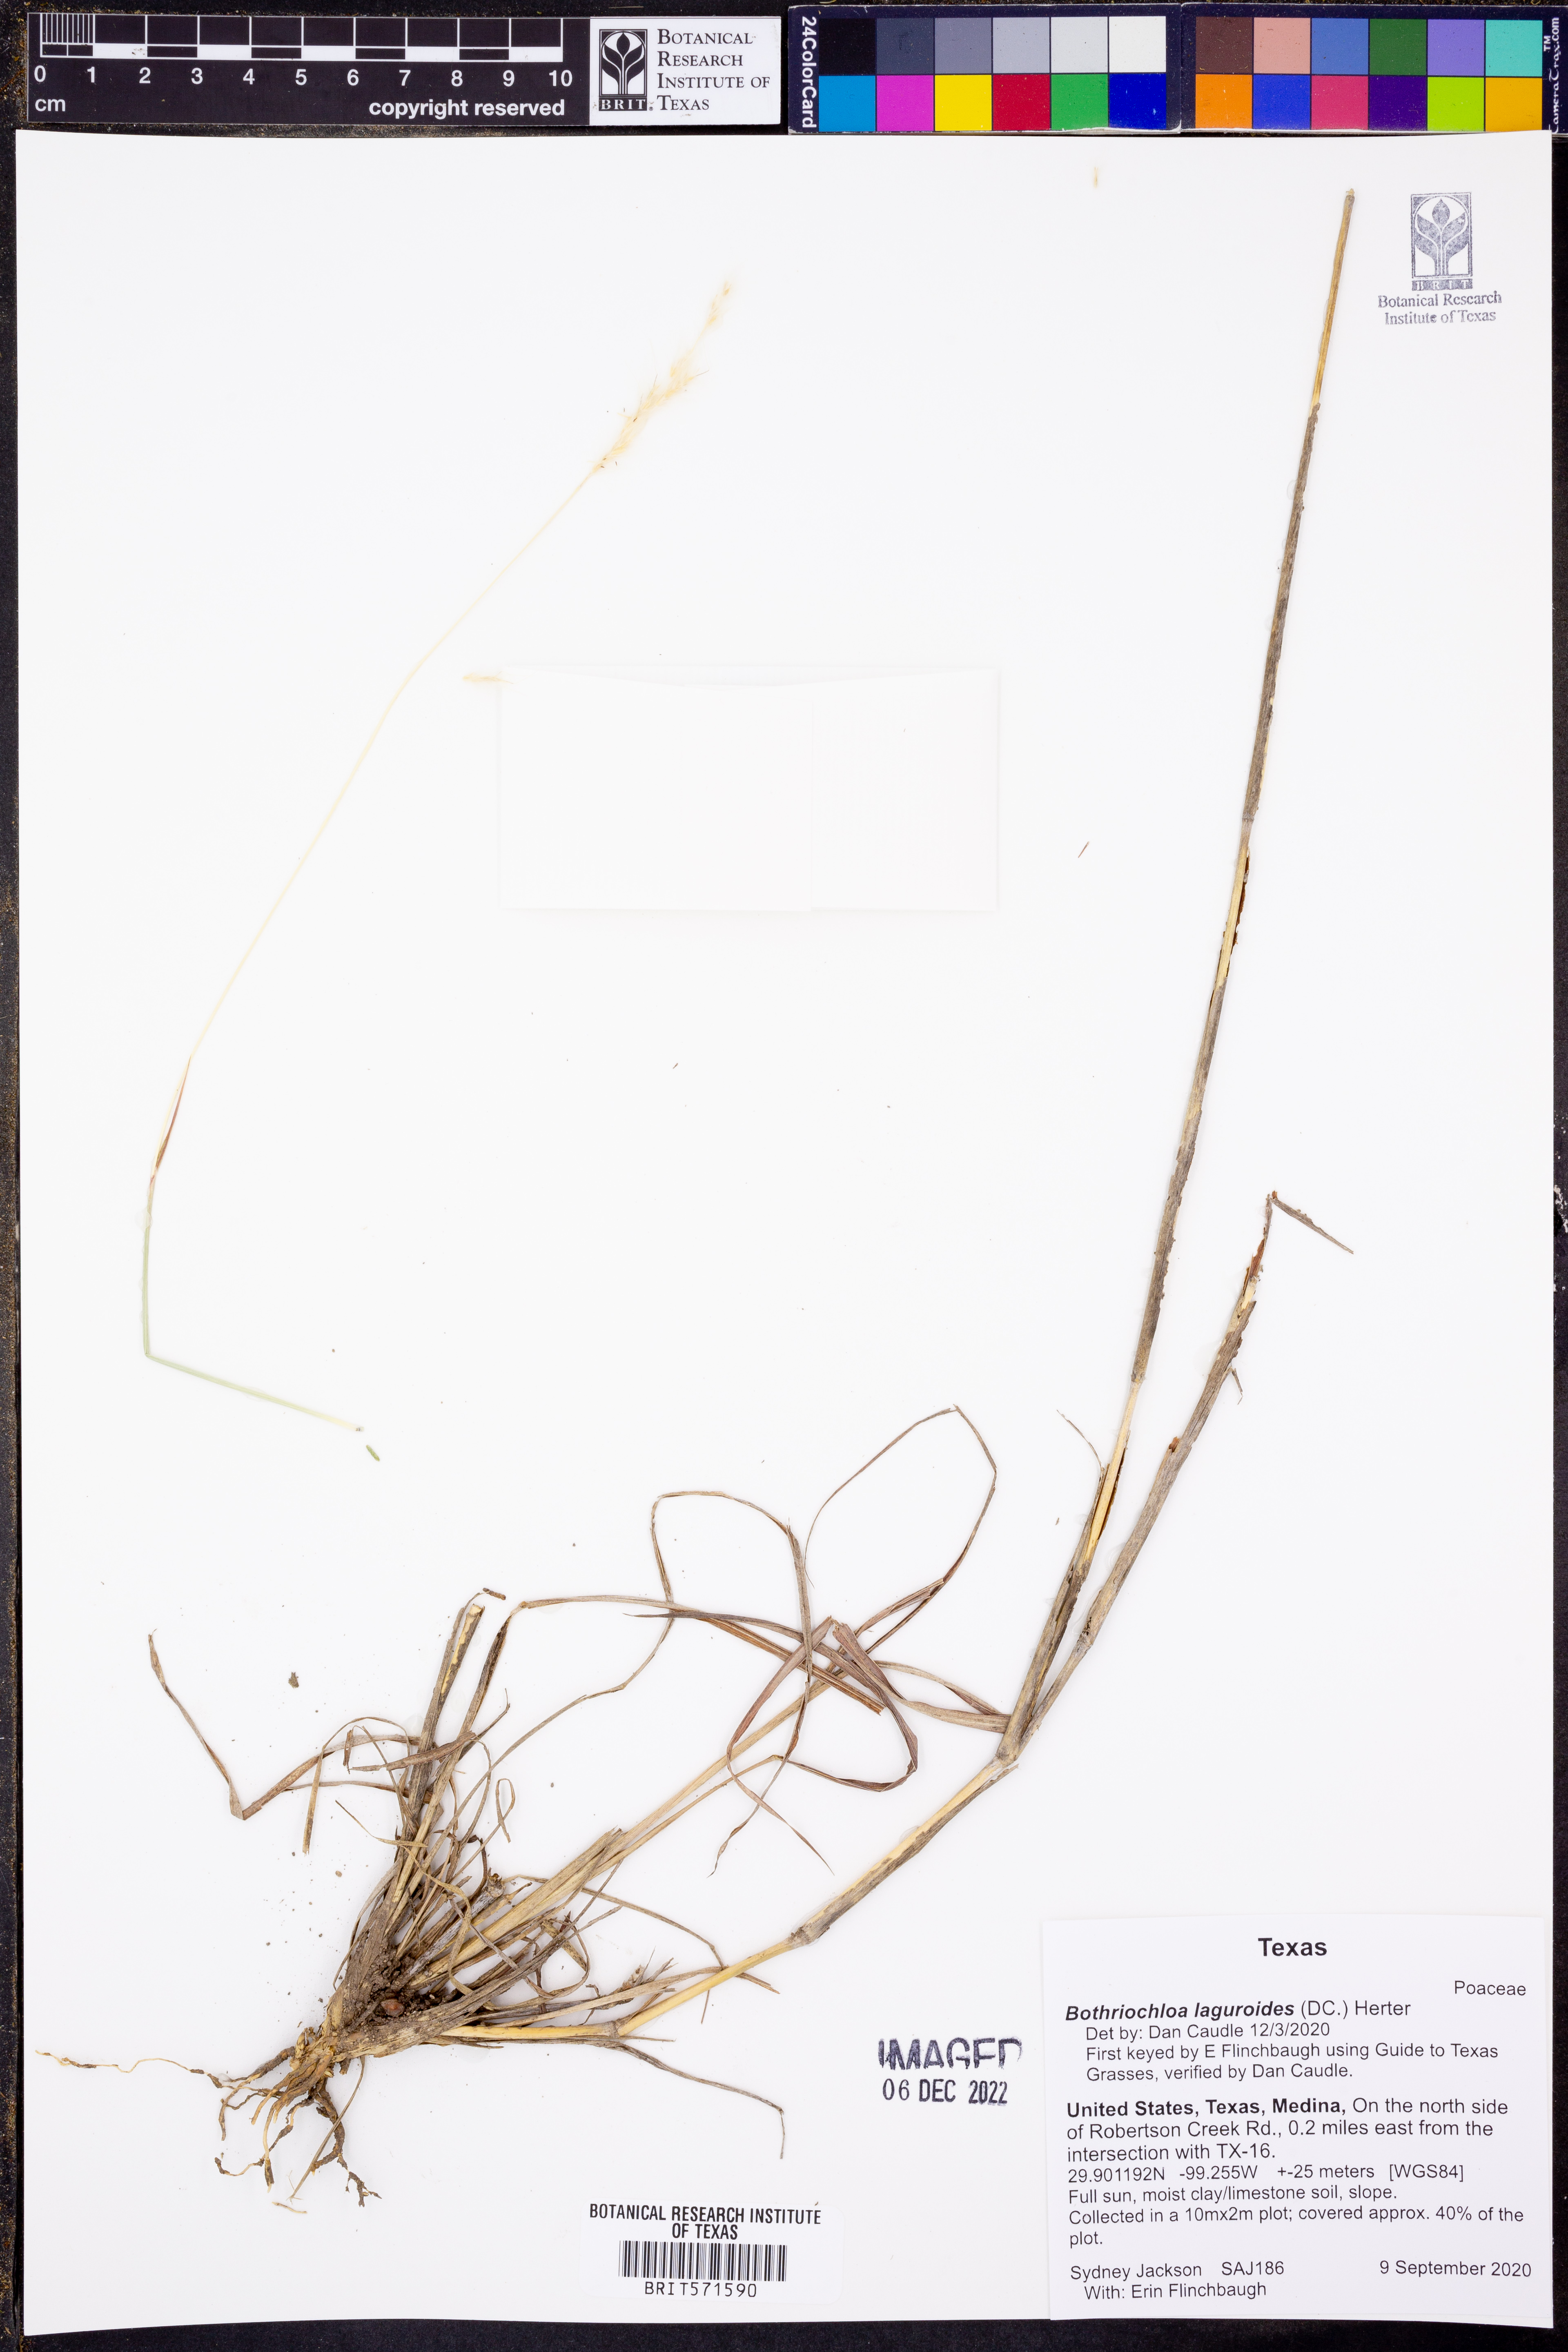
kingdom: Plantae
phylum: Tracheophyta
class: Liliopsida
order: Poales
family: Poaceae
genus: Bothriochloa
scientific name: Bothriochloa laguroides
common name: Silver bluestem
